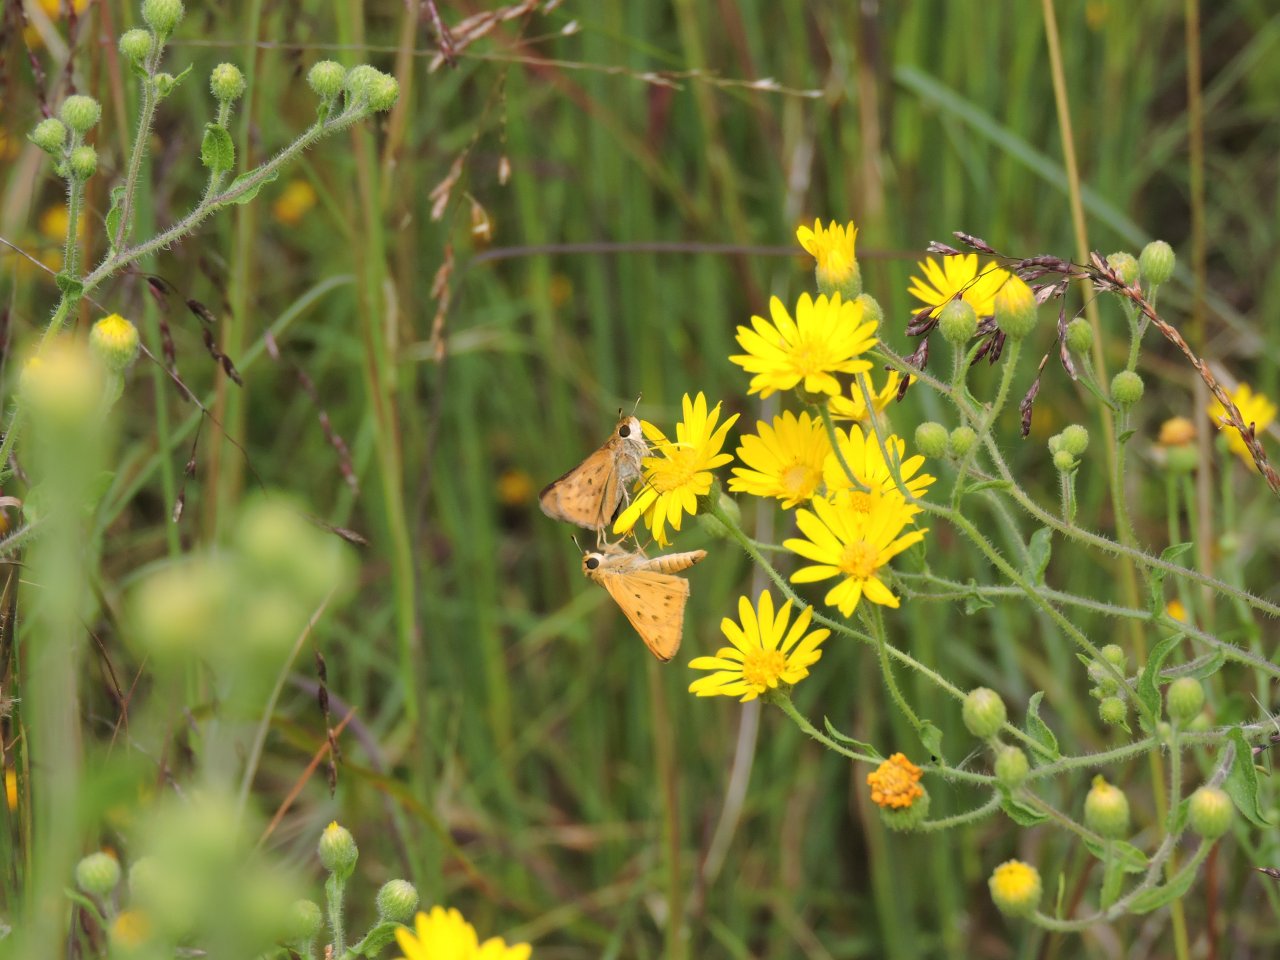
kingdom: Animalia
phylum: Arthropoda
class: Insecta
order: Lepidoptera
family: Hesperiidae
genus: Hylephila
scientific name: Hylephila phyleus
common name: Fiery Skipper
